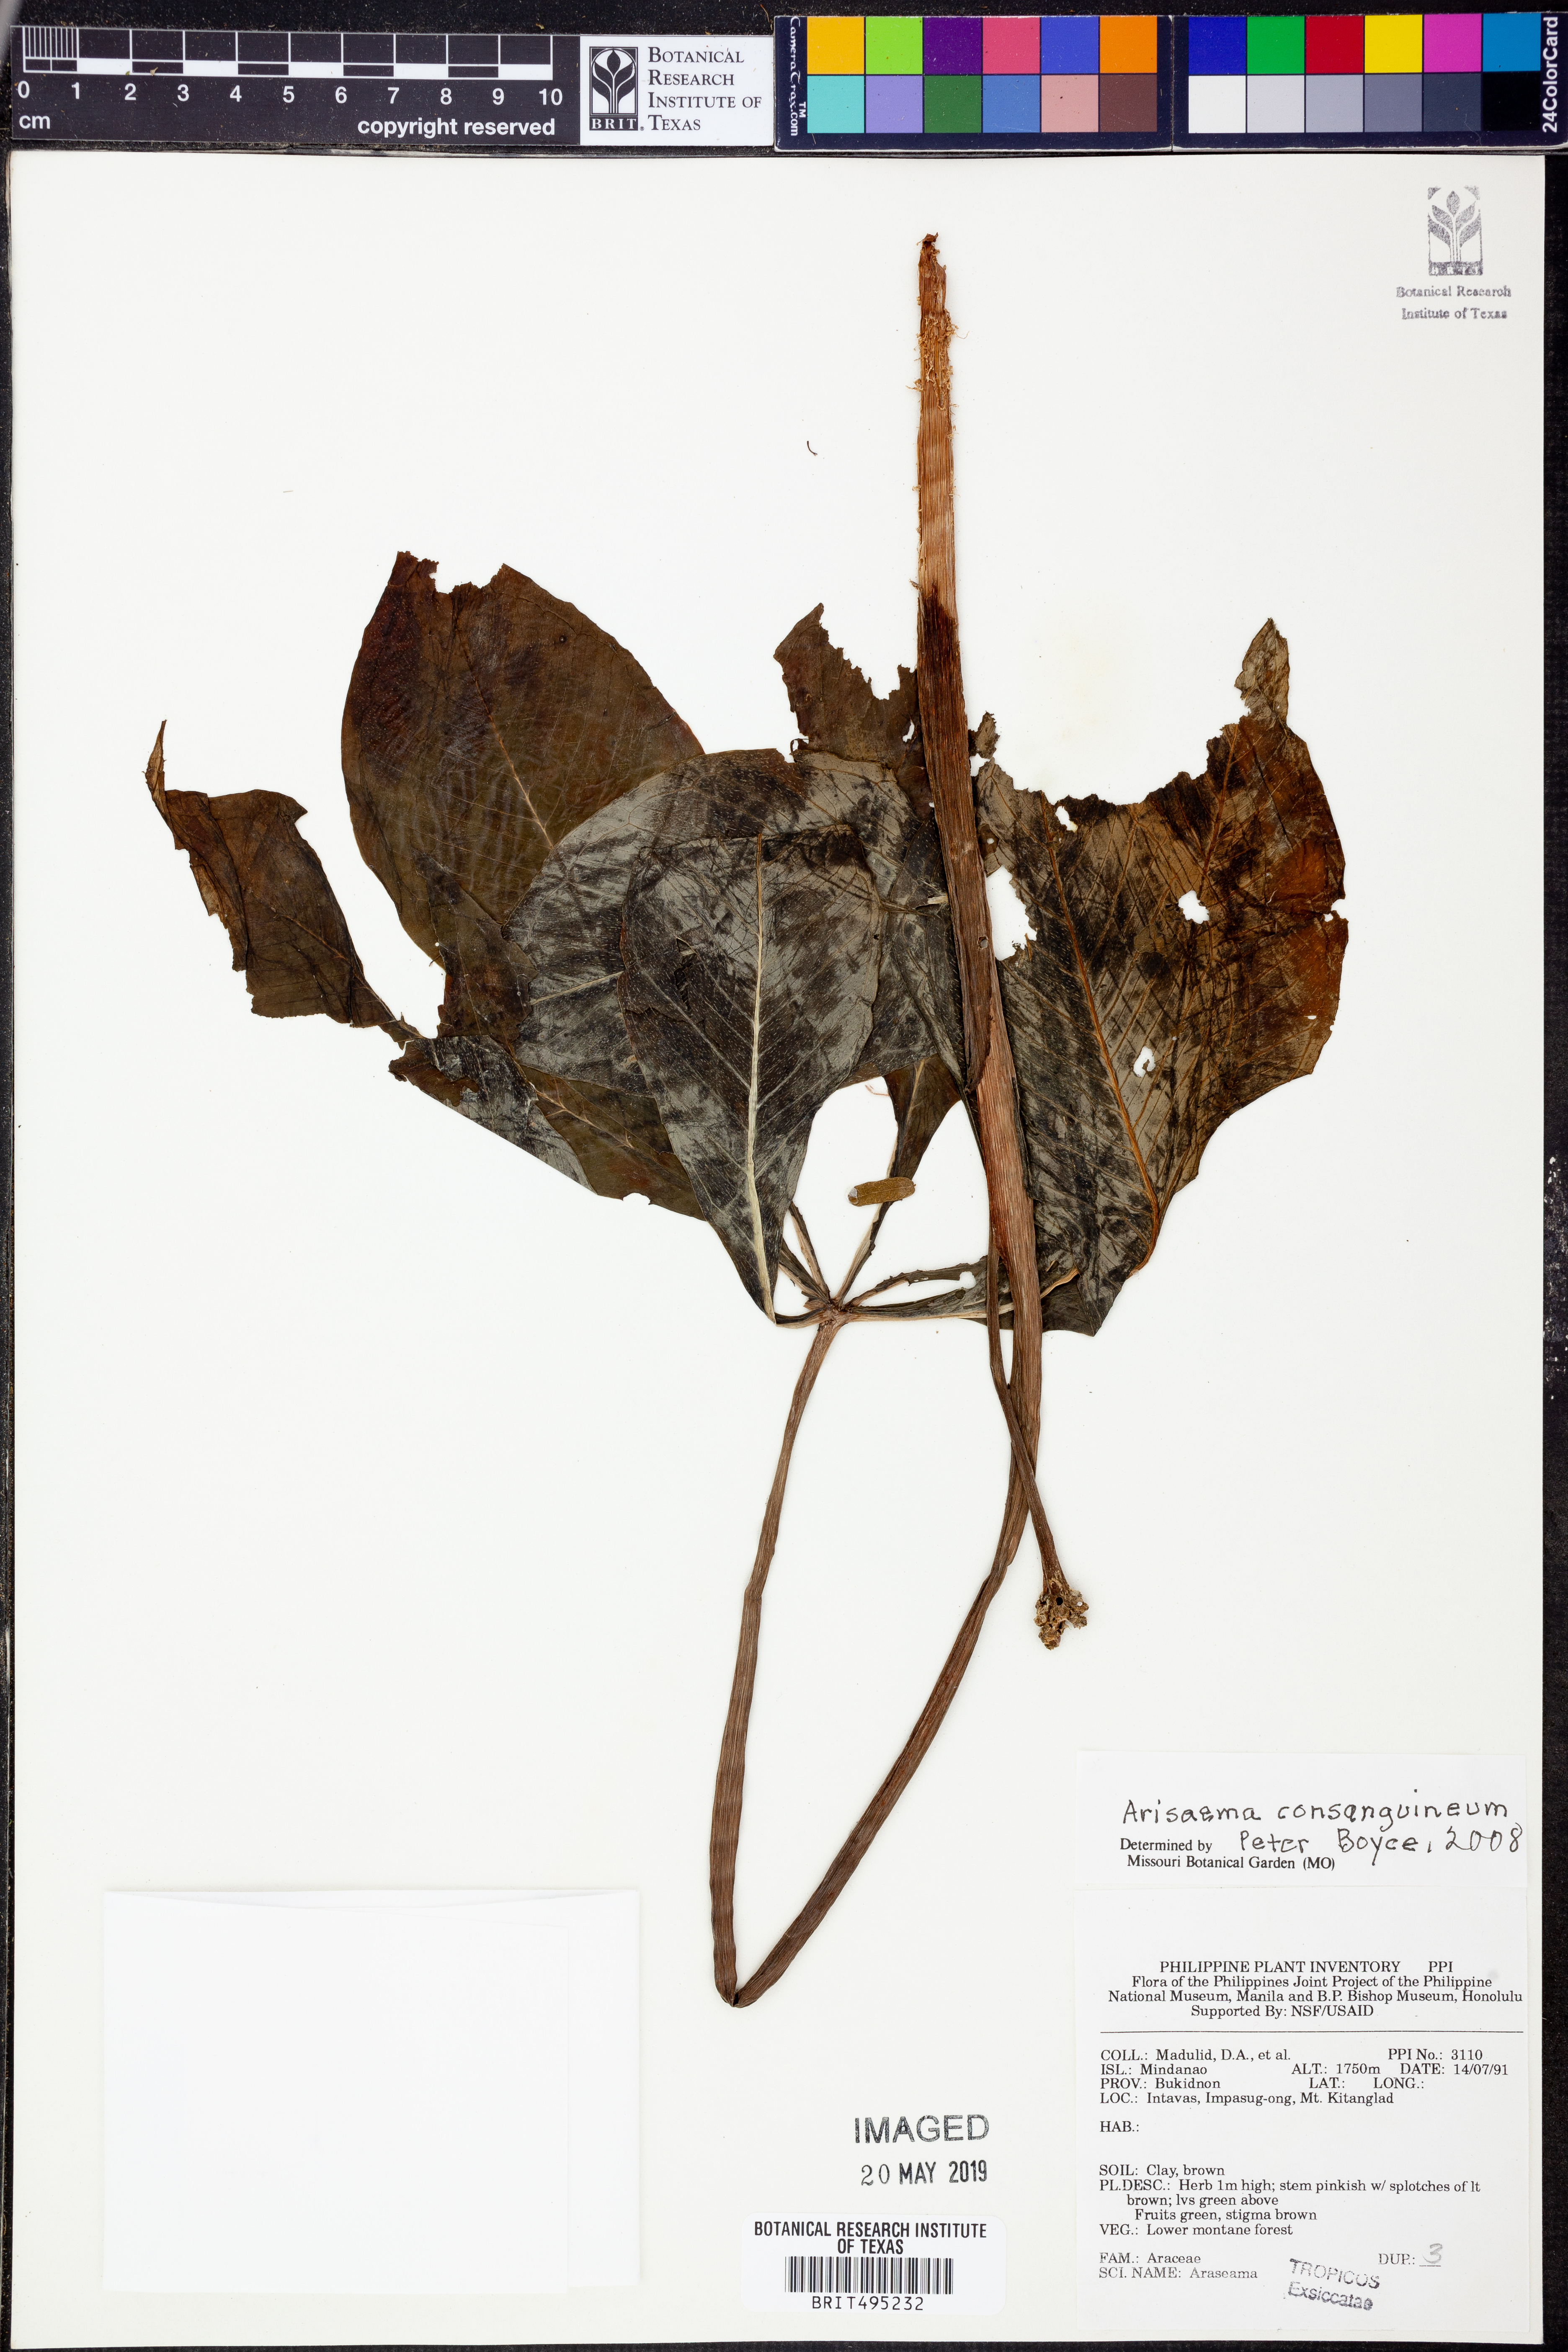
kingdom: Plantae
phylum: Tracheophyta
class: Liliopsida
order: Alismatales
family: Araceae
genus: Arisaema
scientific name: Arisaema consanguineum
